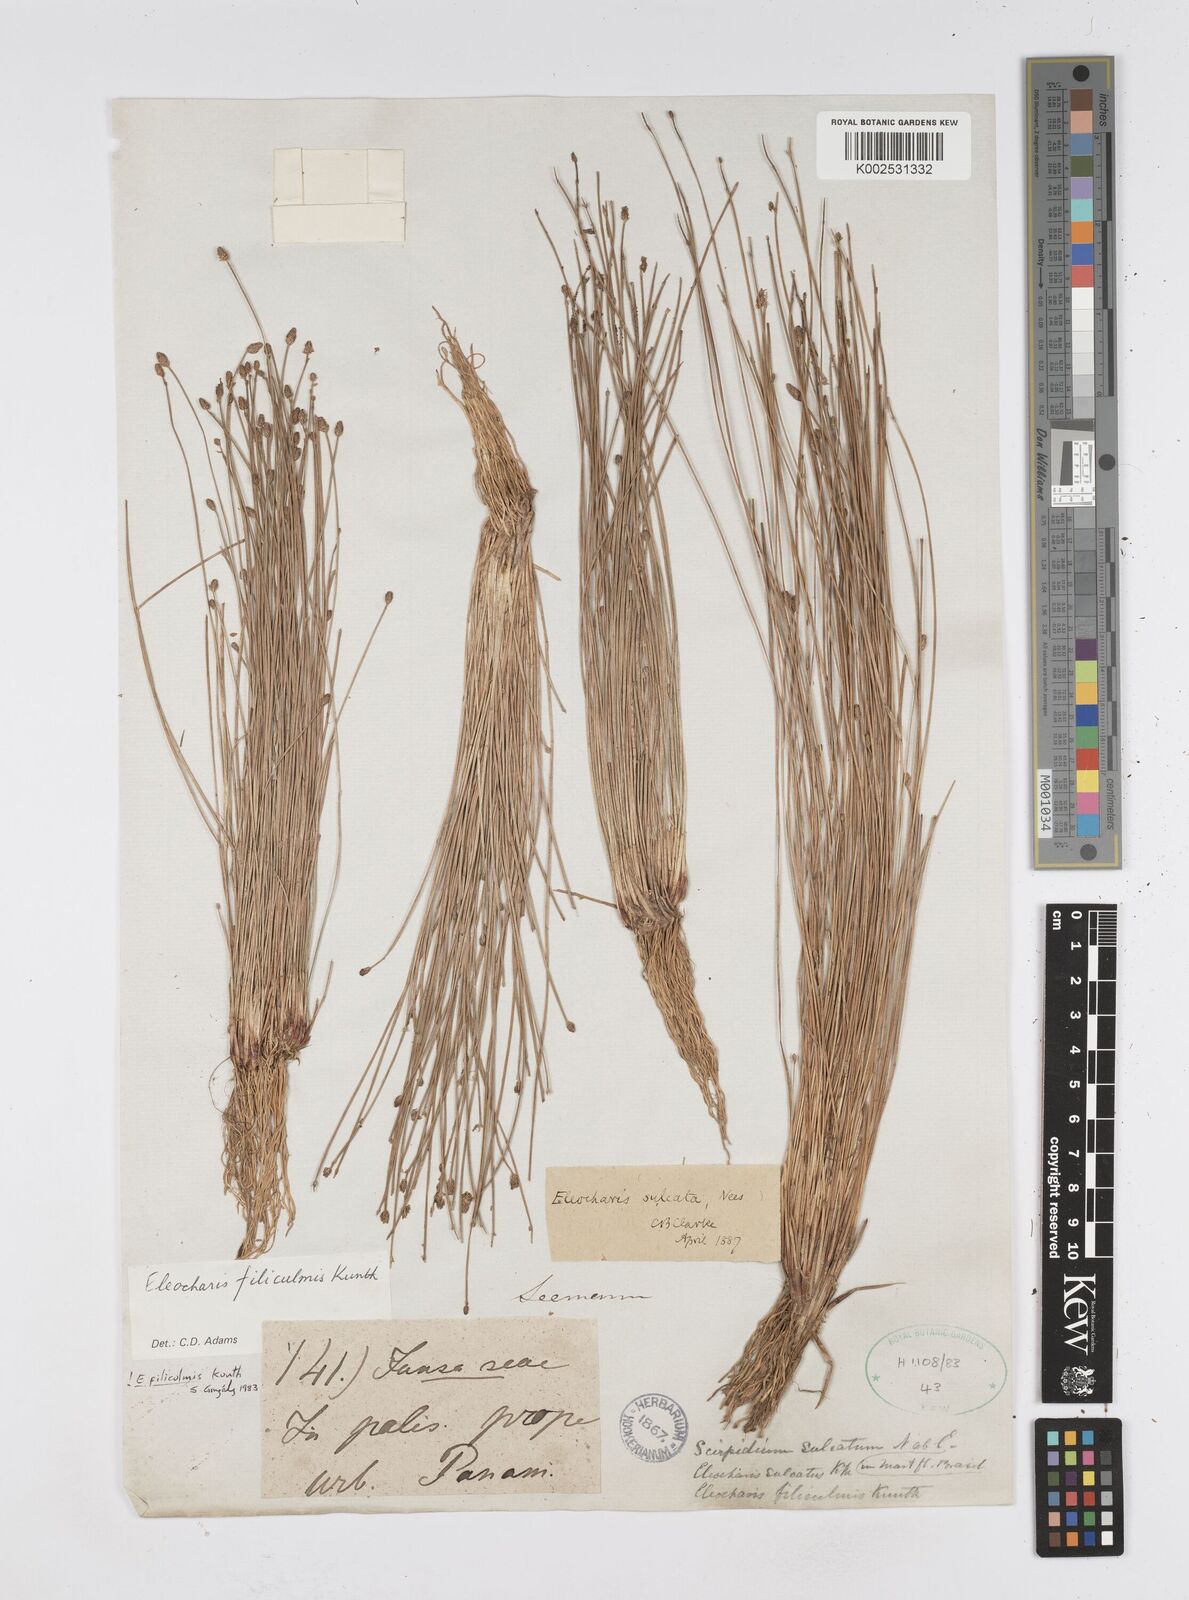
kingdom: Plantae
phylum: Tracheophyta
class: Liliopsida
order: Poales
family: Cyperaceae
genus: Eleocharis
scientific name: Eleocharis filiculmis
